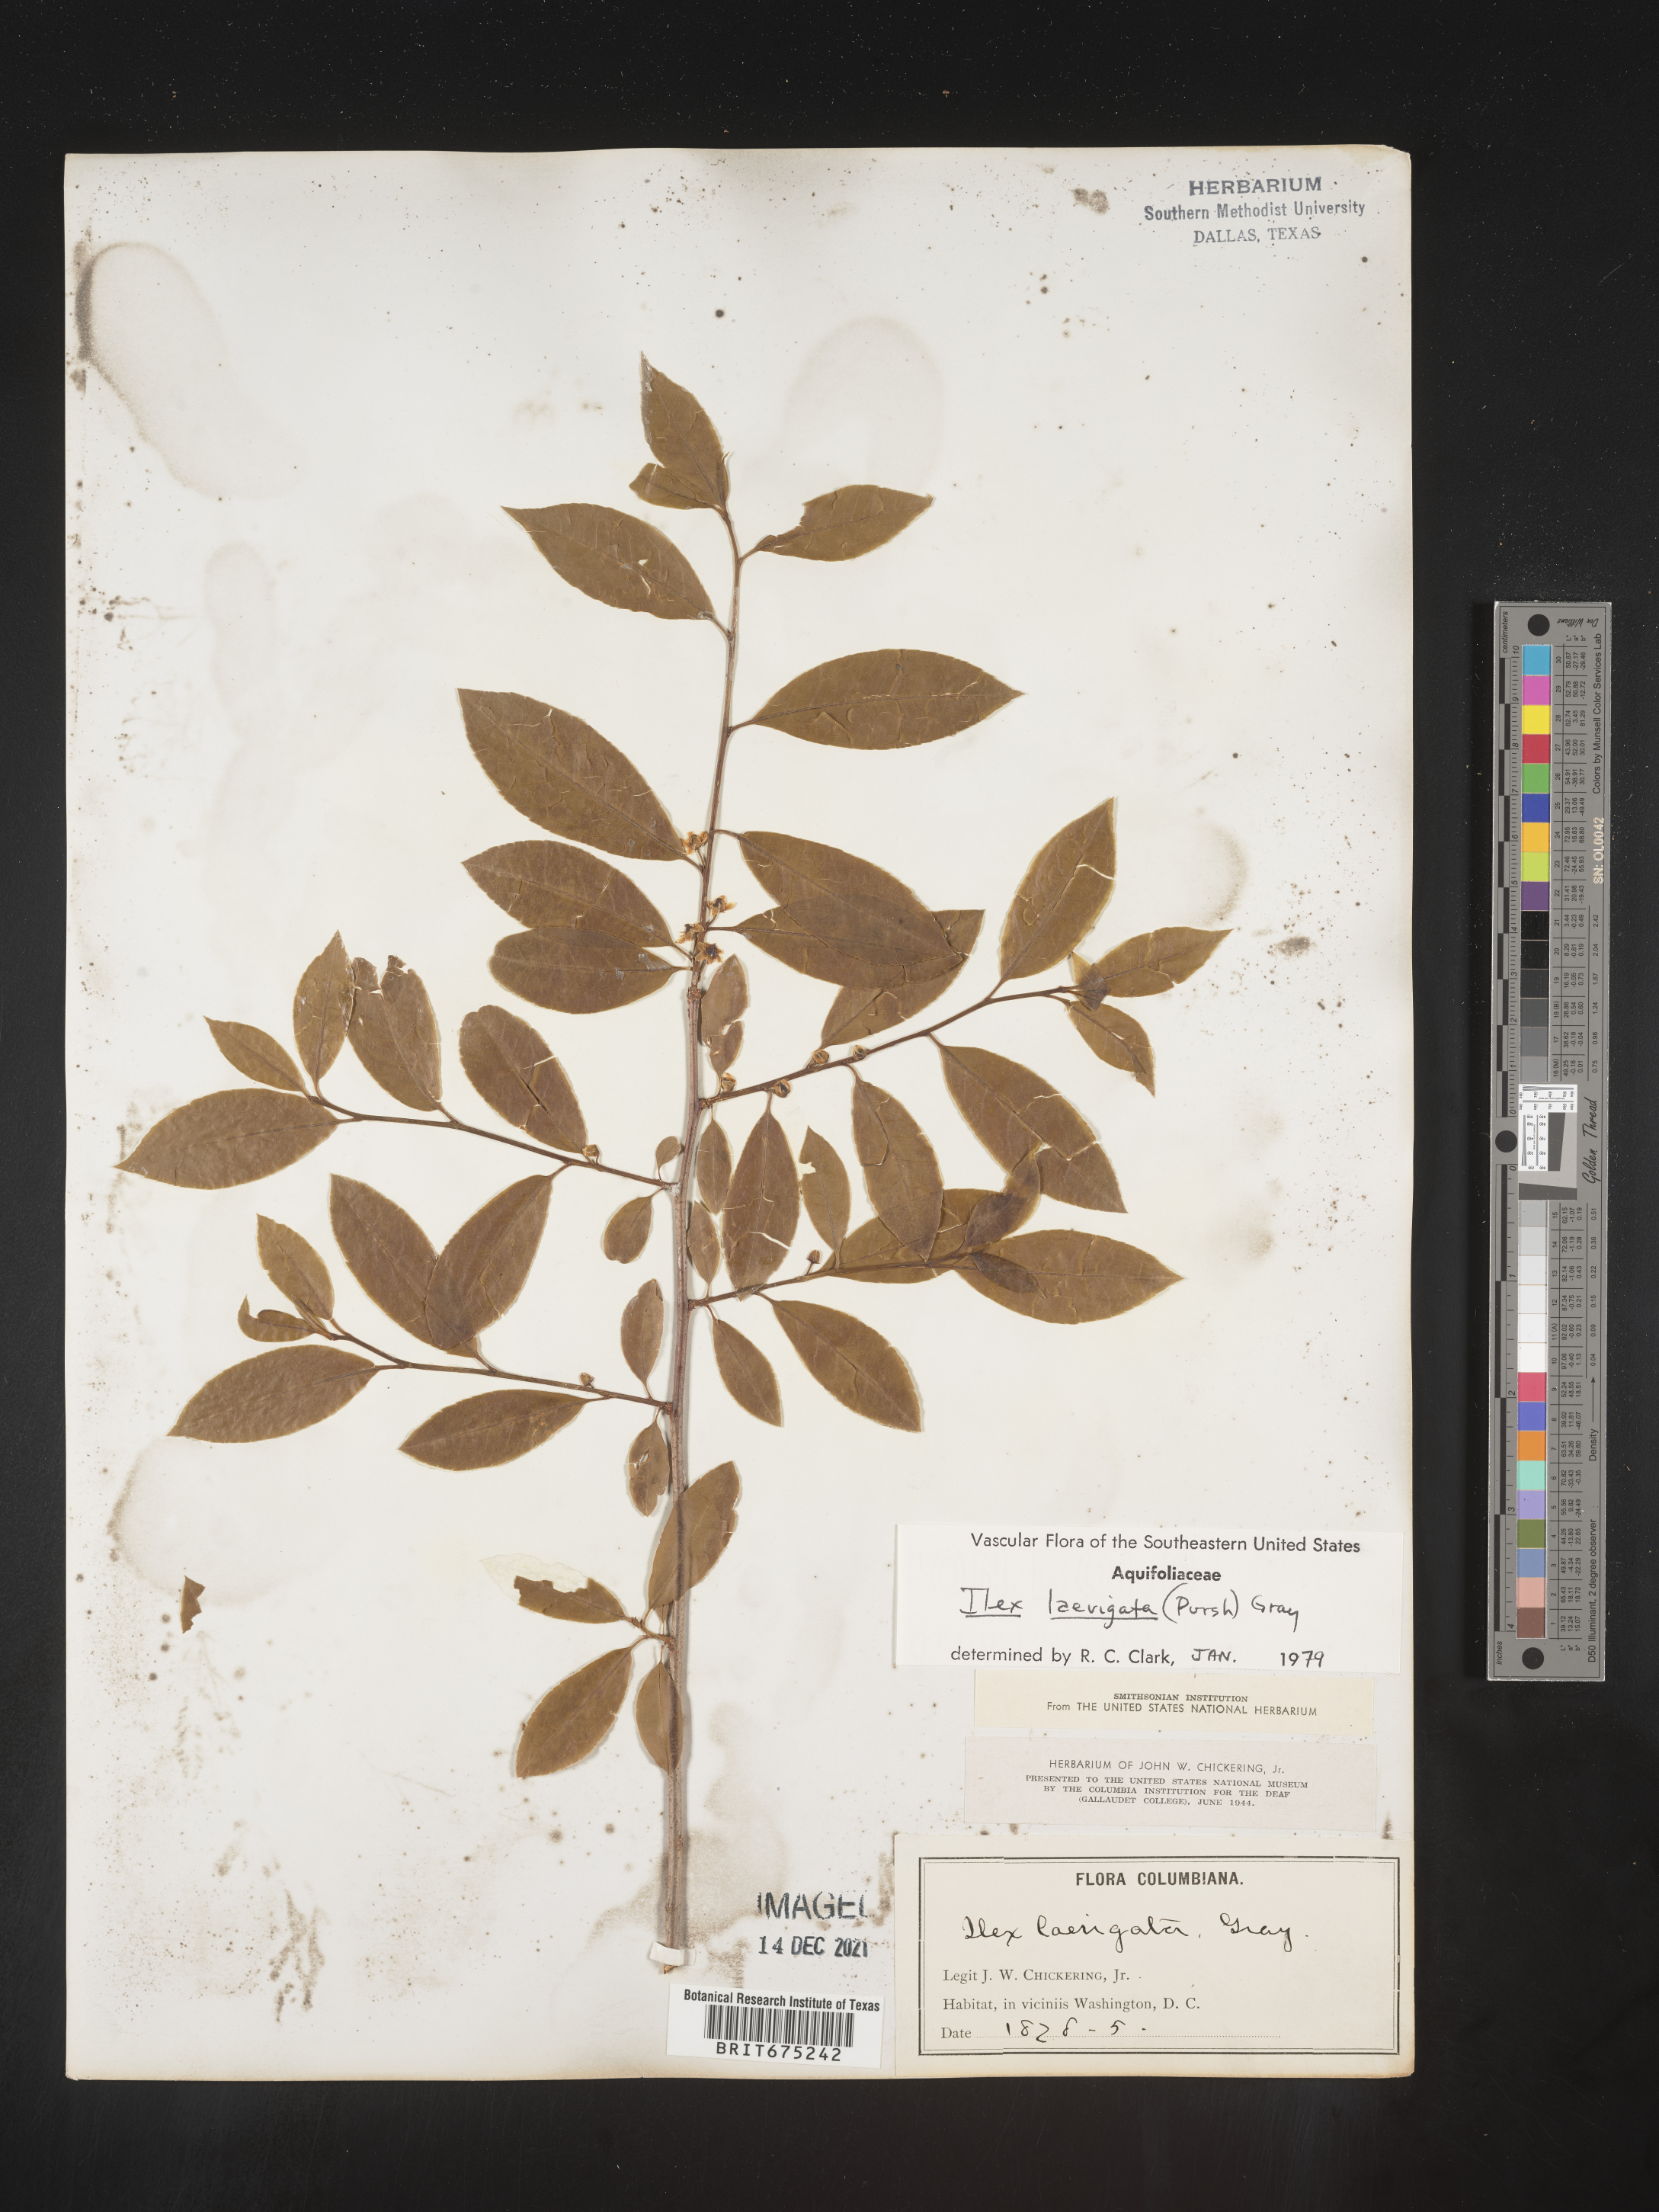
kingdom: Plantae
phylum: Tracheophyta
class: Magnoliopsida
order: Aquifoliales
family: Aquifoliaceae
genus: Ilex
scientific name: Ilex longipes
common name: Georgia holly
